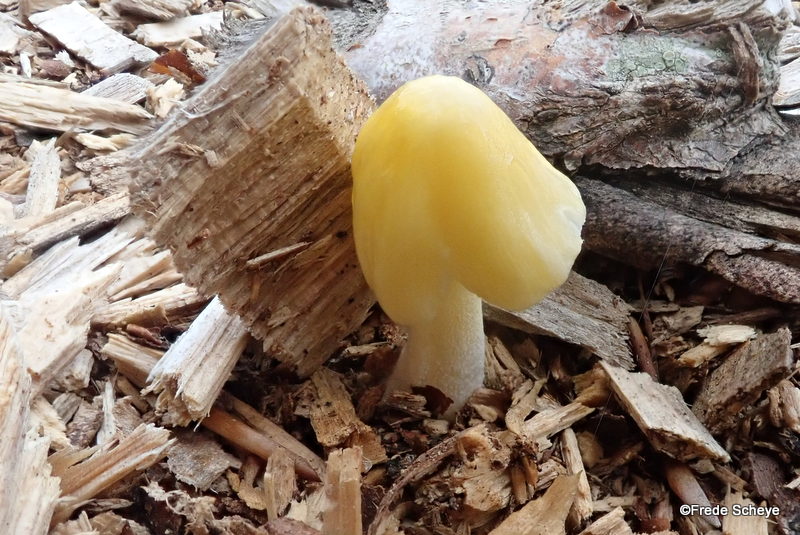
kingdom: Fungi
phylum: Basidiomycota
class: Agaricomycetes
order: Agaricales
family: Bolbitiaceae
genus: Bolbitius
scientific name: Bolbitius titubans
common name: almindelig gulhat
